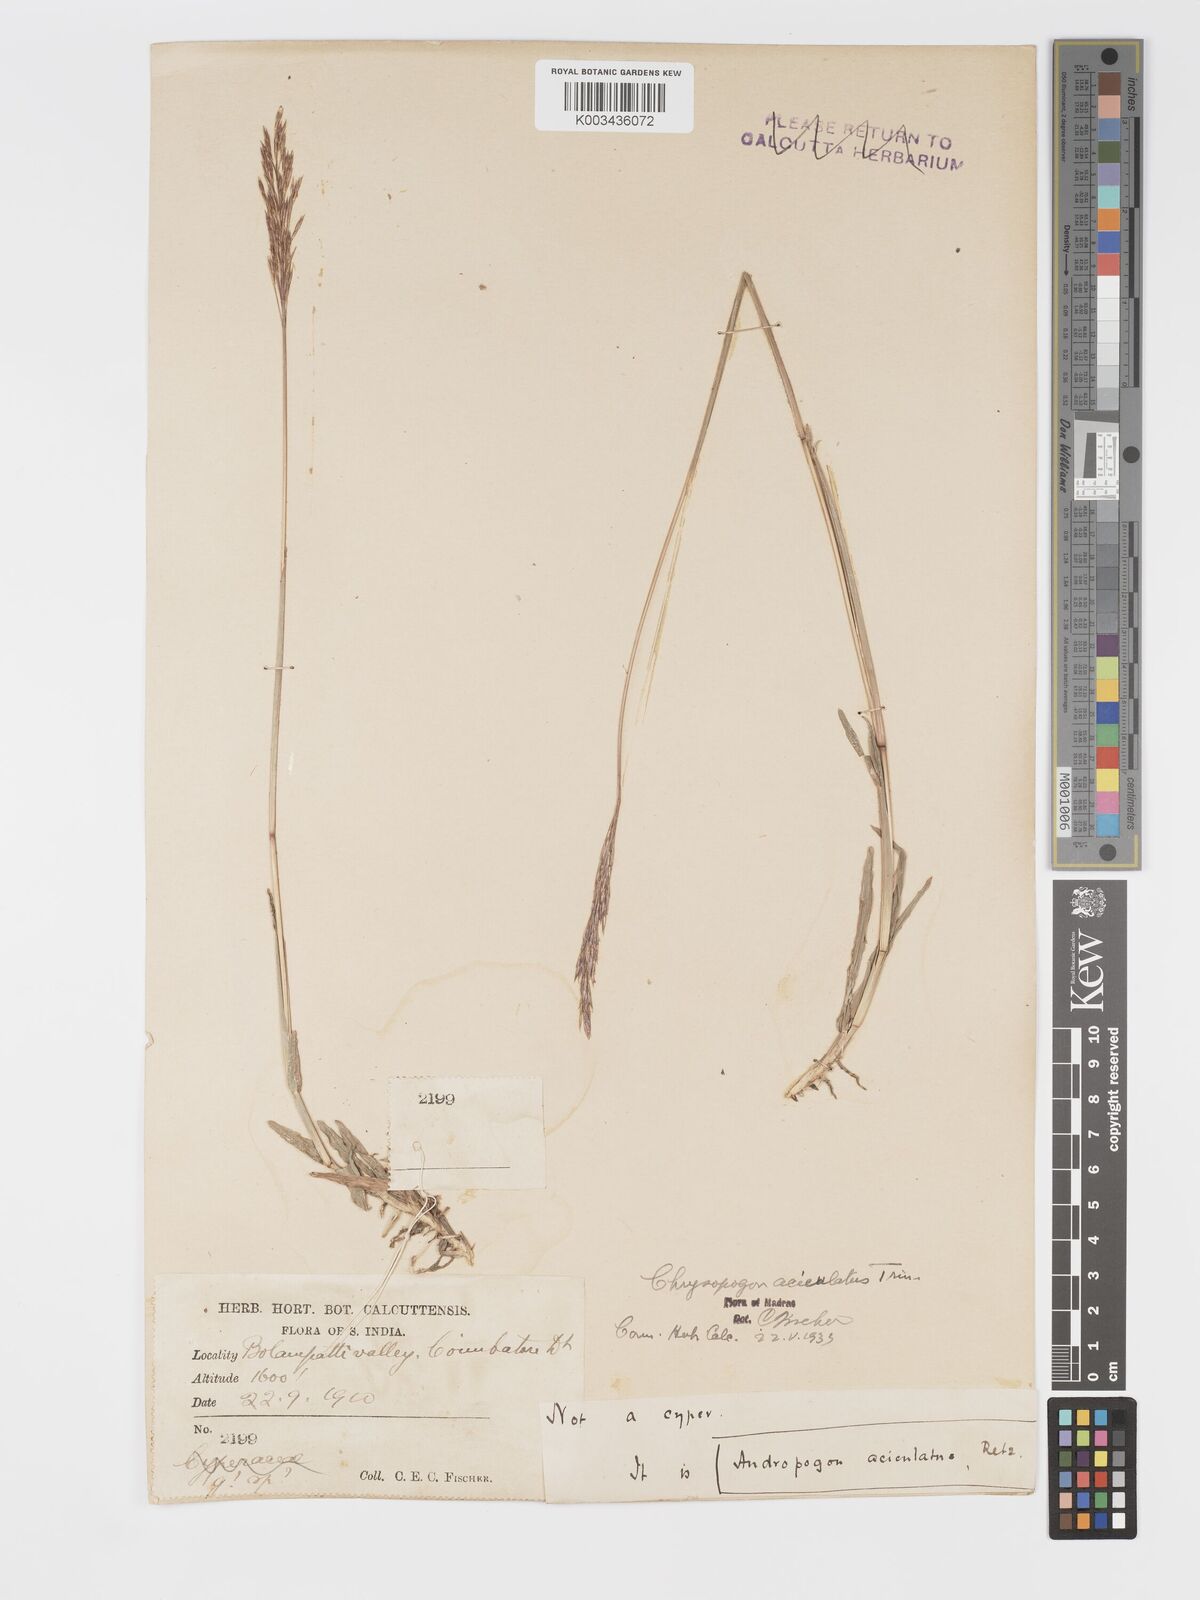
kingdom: Plantae
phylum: Tracheophyta
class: Liliopsida
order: Poales
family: Poaceae
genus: Chrysopogon
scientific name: Chrysopogon aciculatus
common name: Pilipiliula
